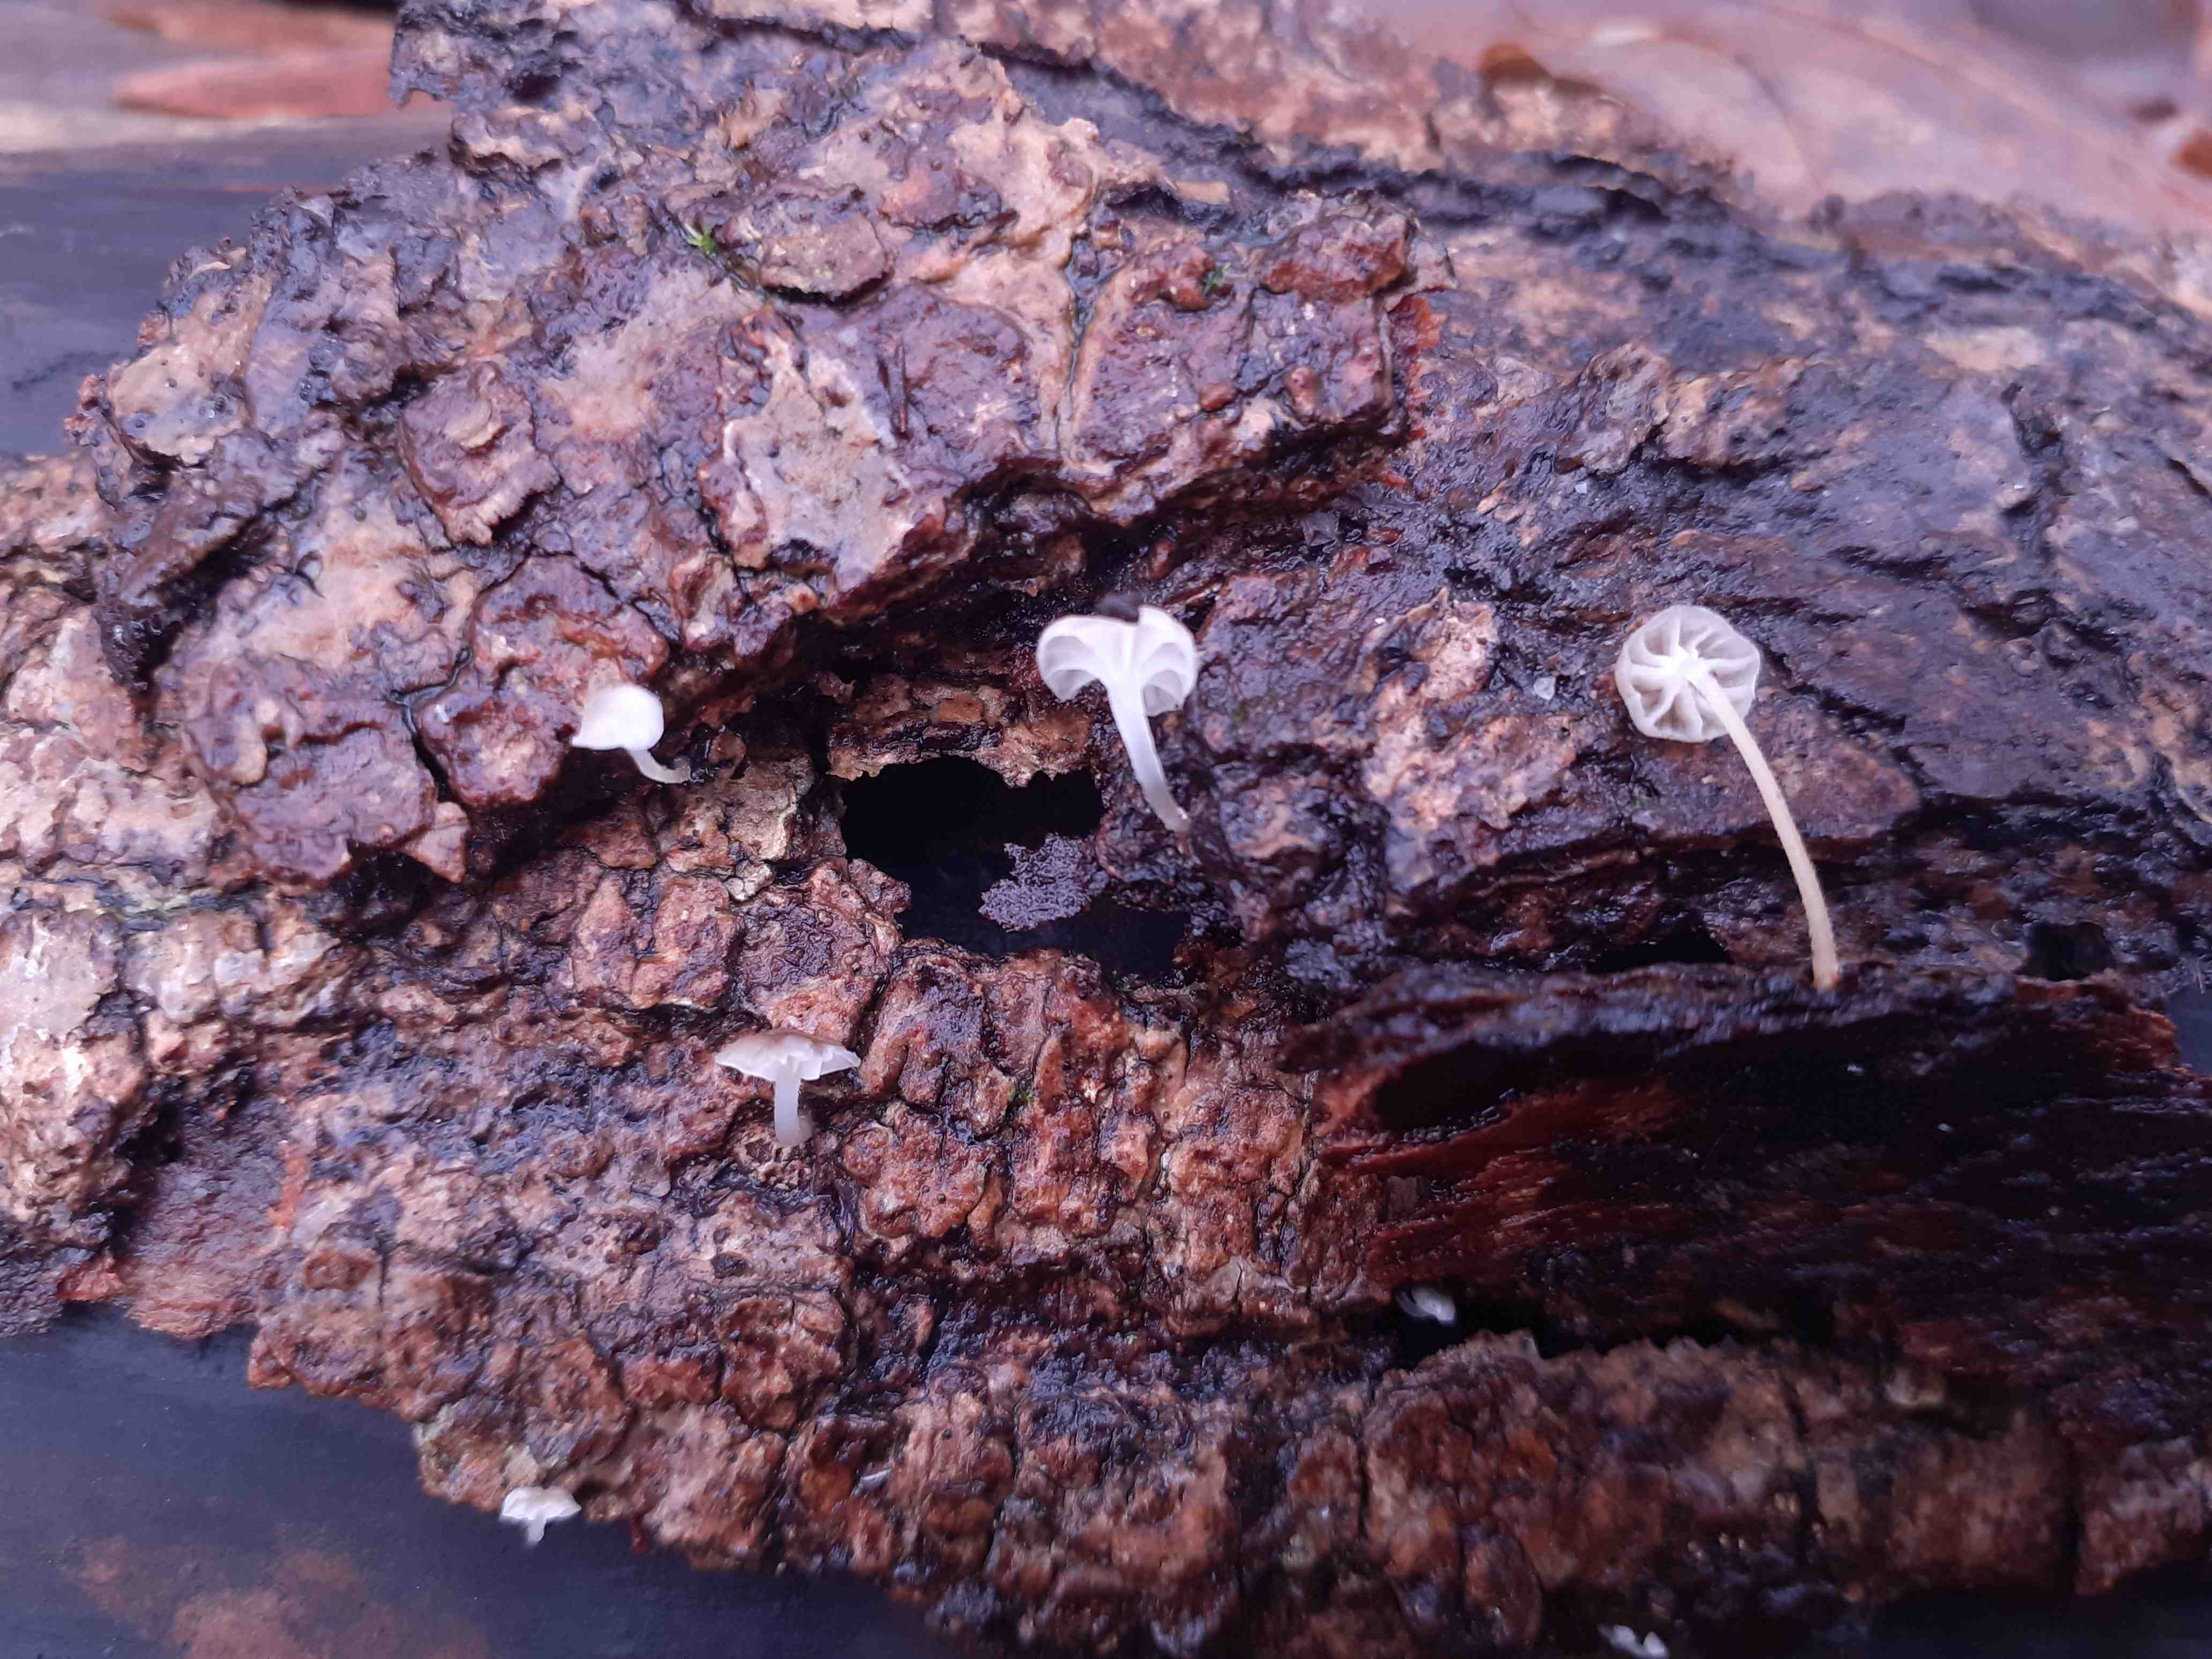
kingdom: Fungi
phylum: Basidiomycota
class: Agaricomycetes
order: Agaricales
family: Porotheleaceae
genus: Phloeomana
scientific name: Phloeomana speirea
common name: kvist-huesvamp
